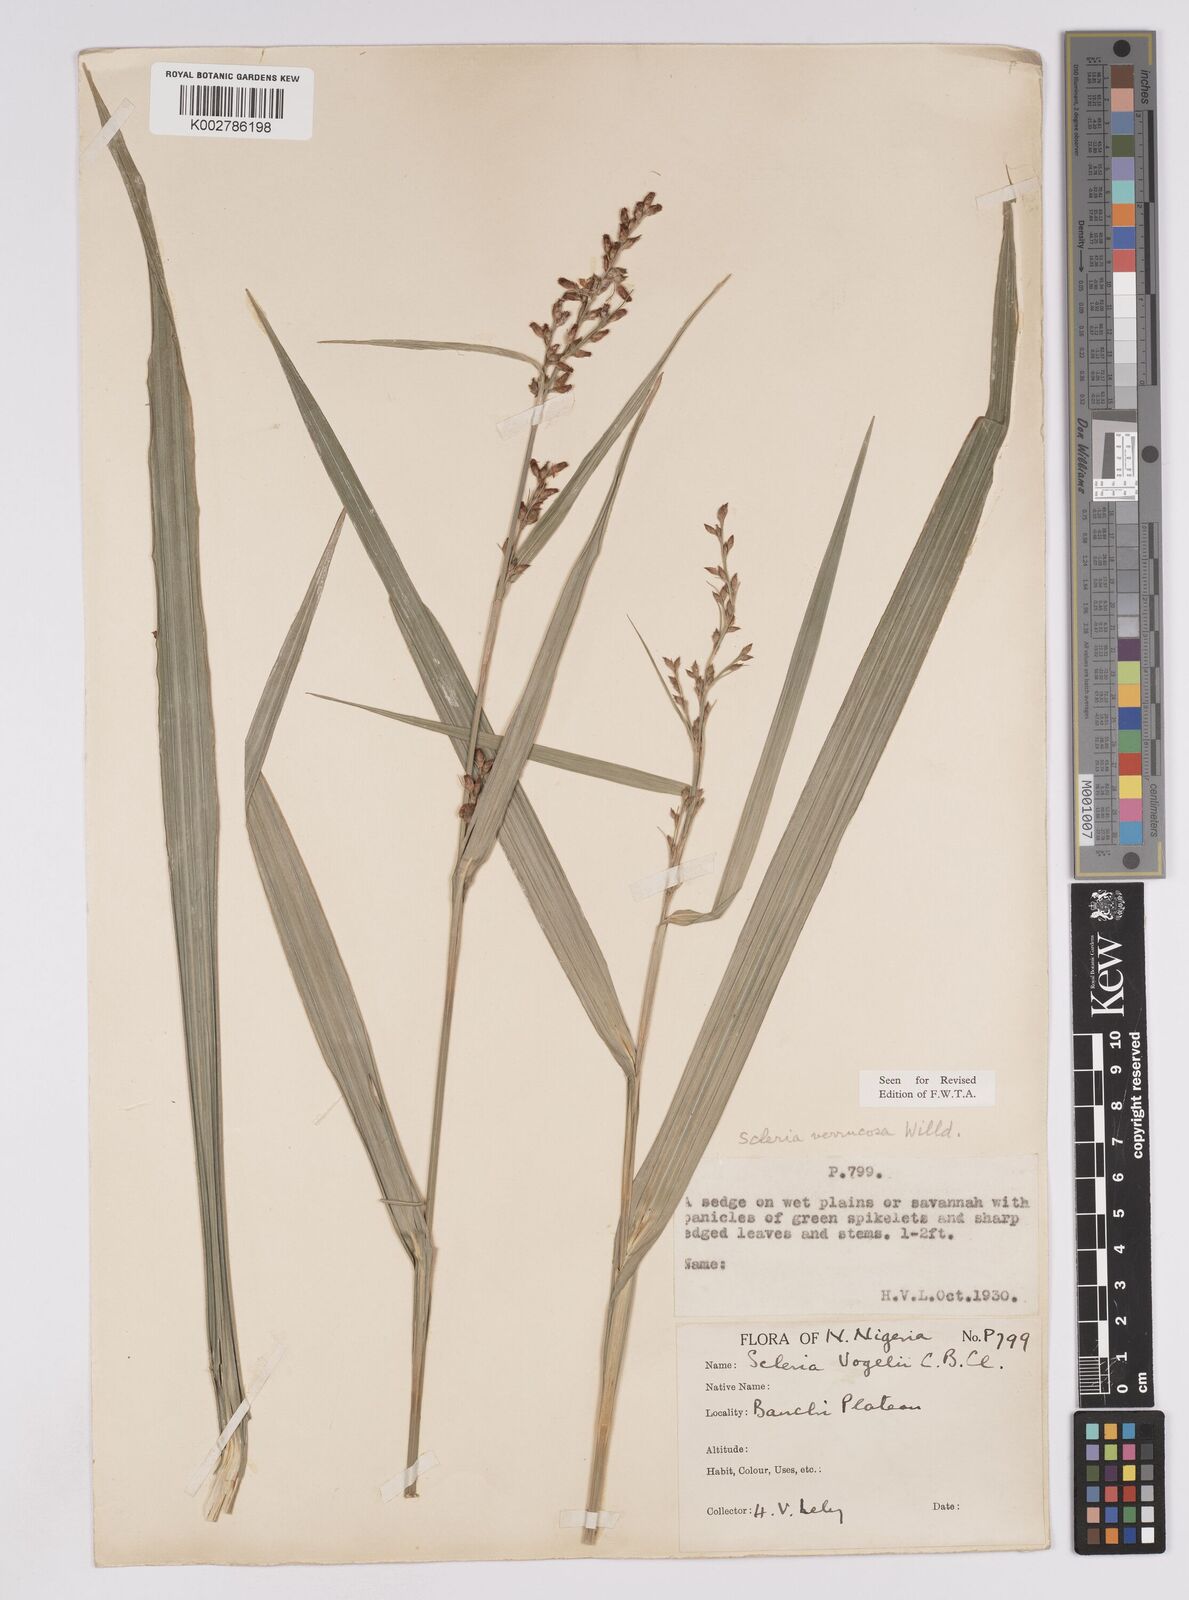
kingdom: Plantae
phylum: Tracheophyta
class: Liliopsida
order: Poales
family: Cyperaceae
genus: Scleria
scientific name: Scleria verrucosa
